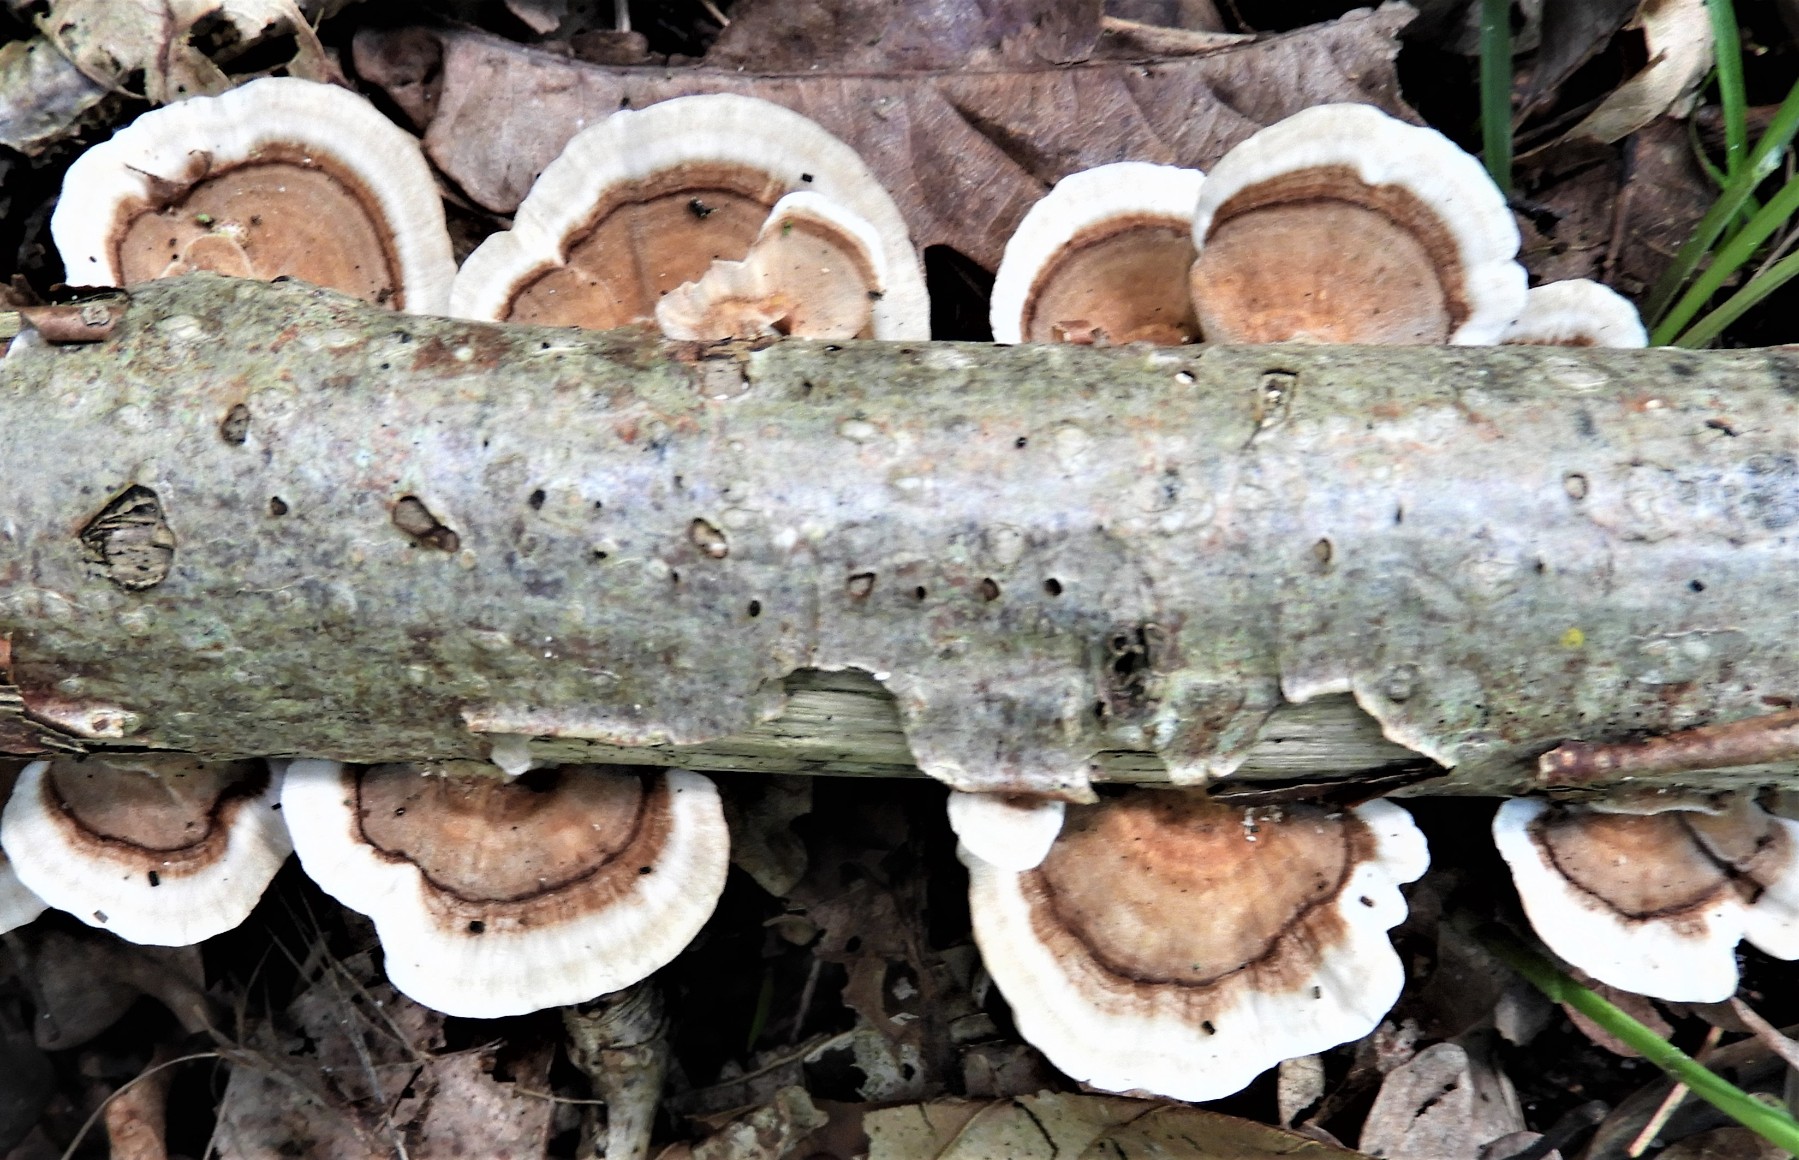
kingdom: Fungi
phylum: Basidiomycota
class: Agaricomycetes
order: Polyporales
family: Polyporaceae
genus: Trametes
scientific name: Trametes versicolor
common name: broget læderporesvamp
